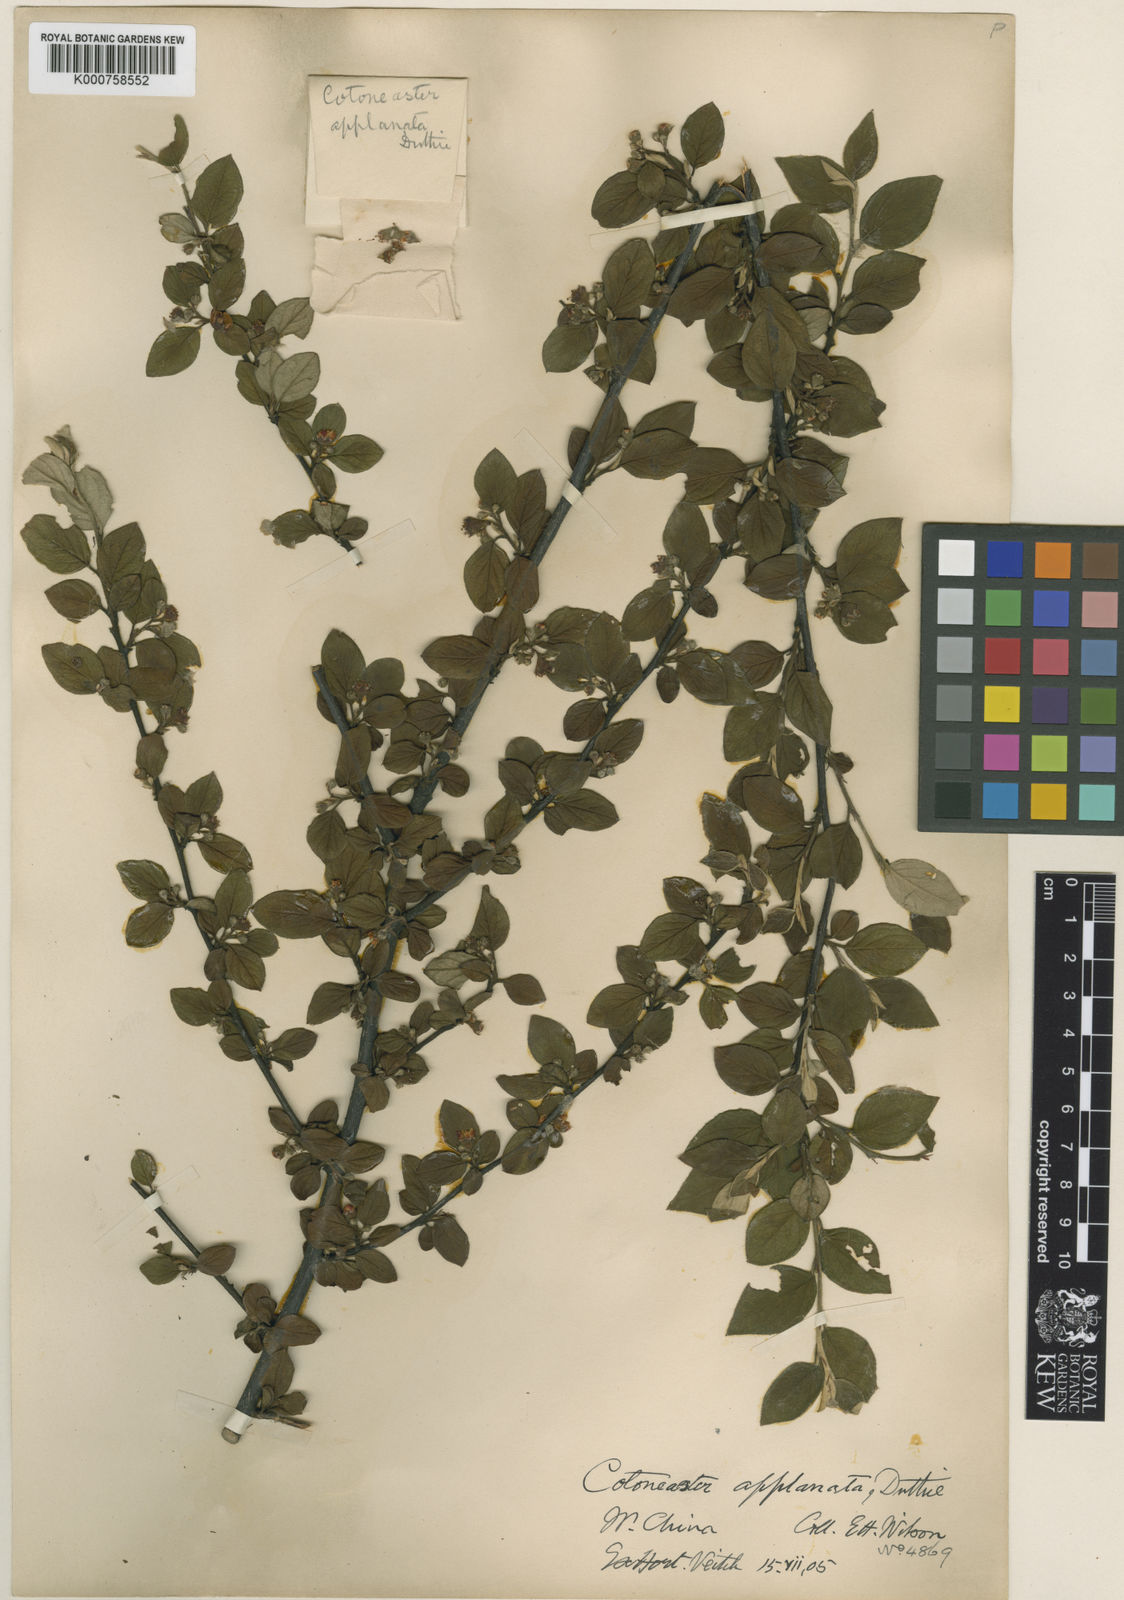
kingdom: Plantae
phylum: Tracheophyta
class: Magnoliopsida
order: Rosales
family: Rosaceae
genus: Cotoneaster
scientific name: Cotoneaster
